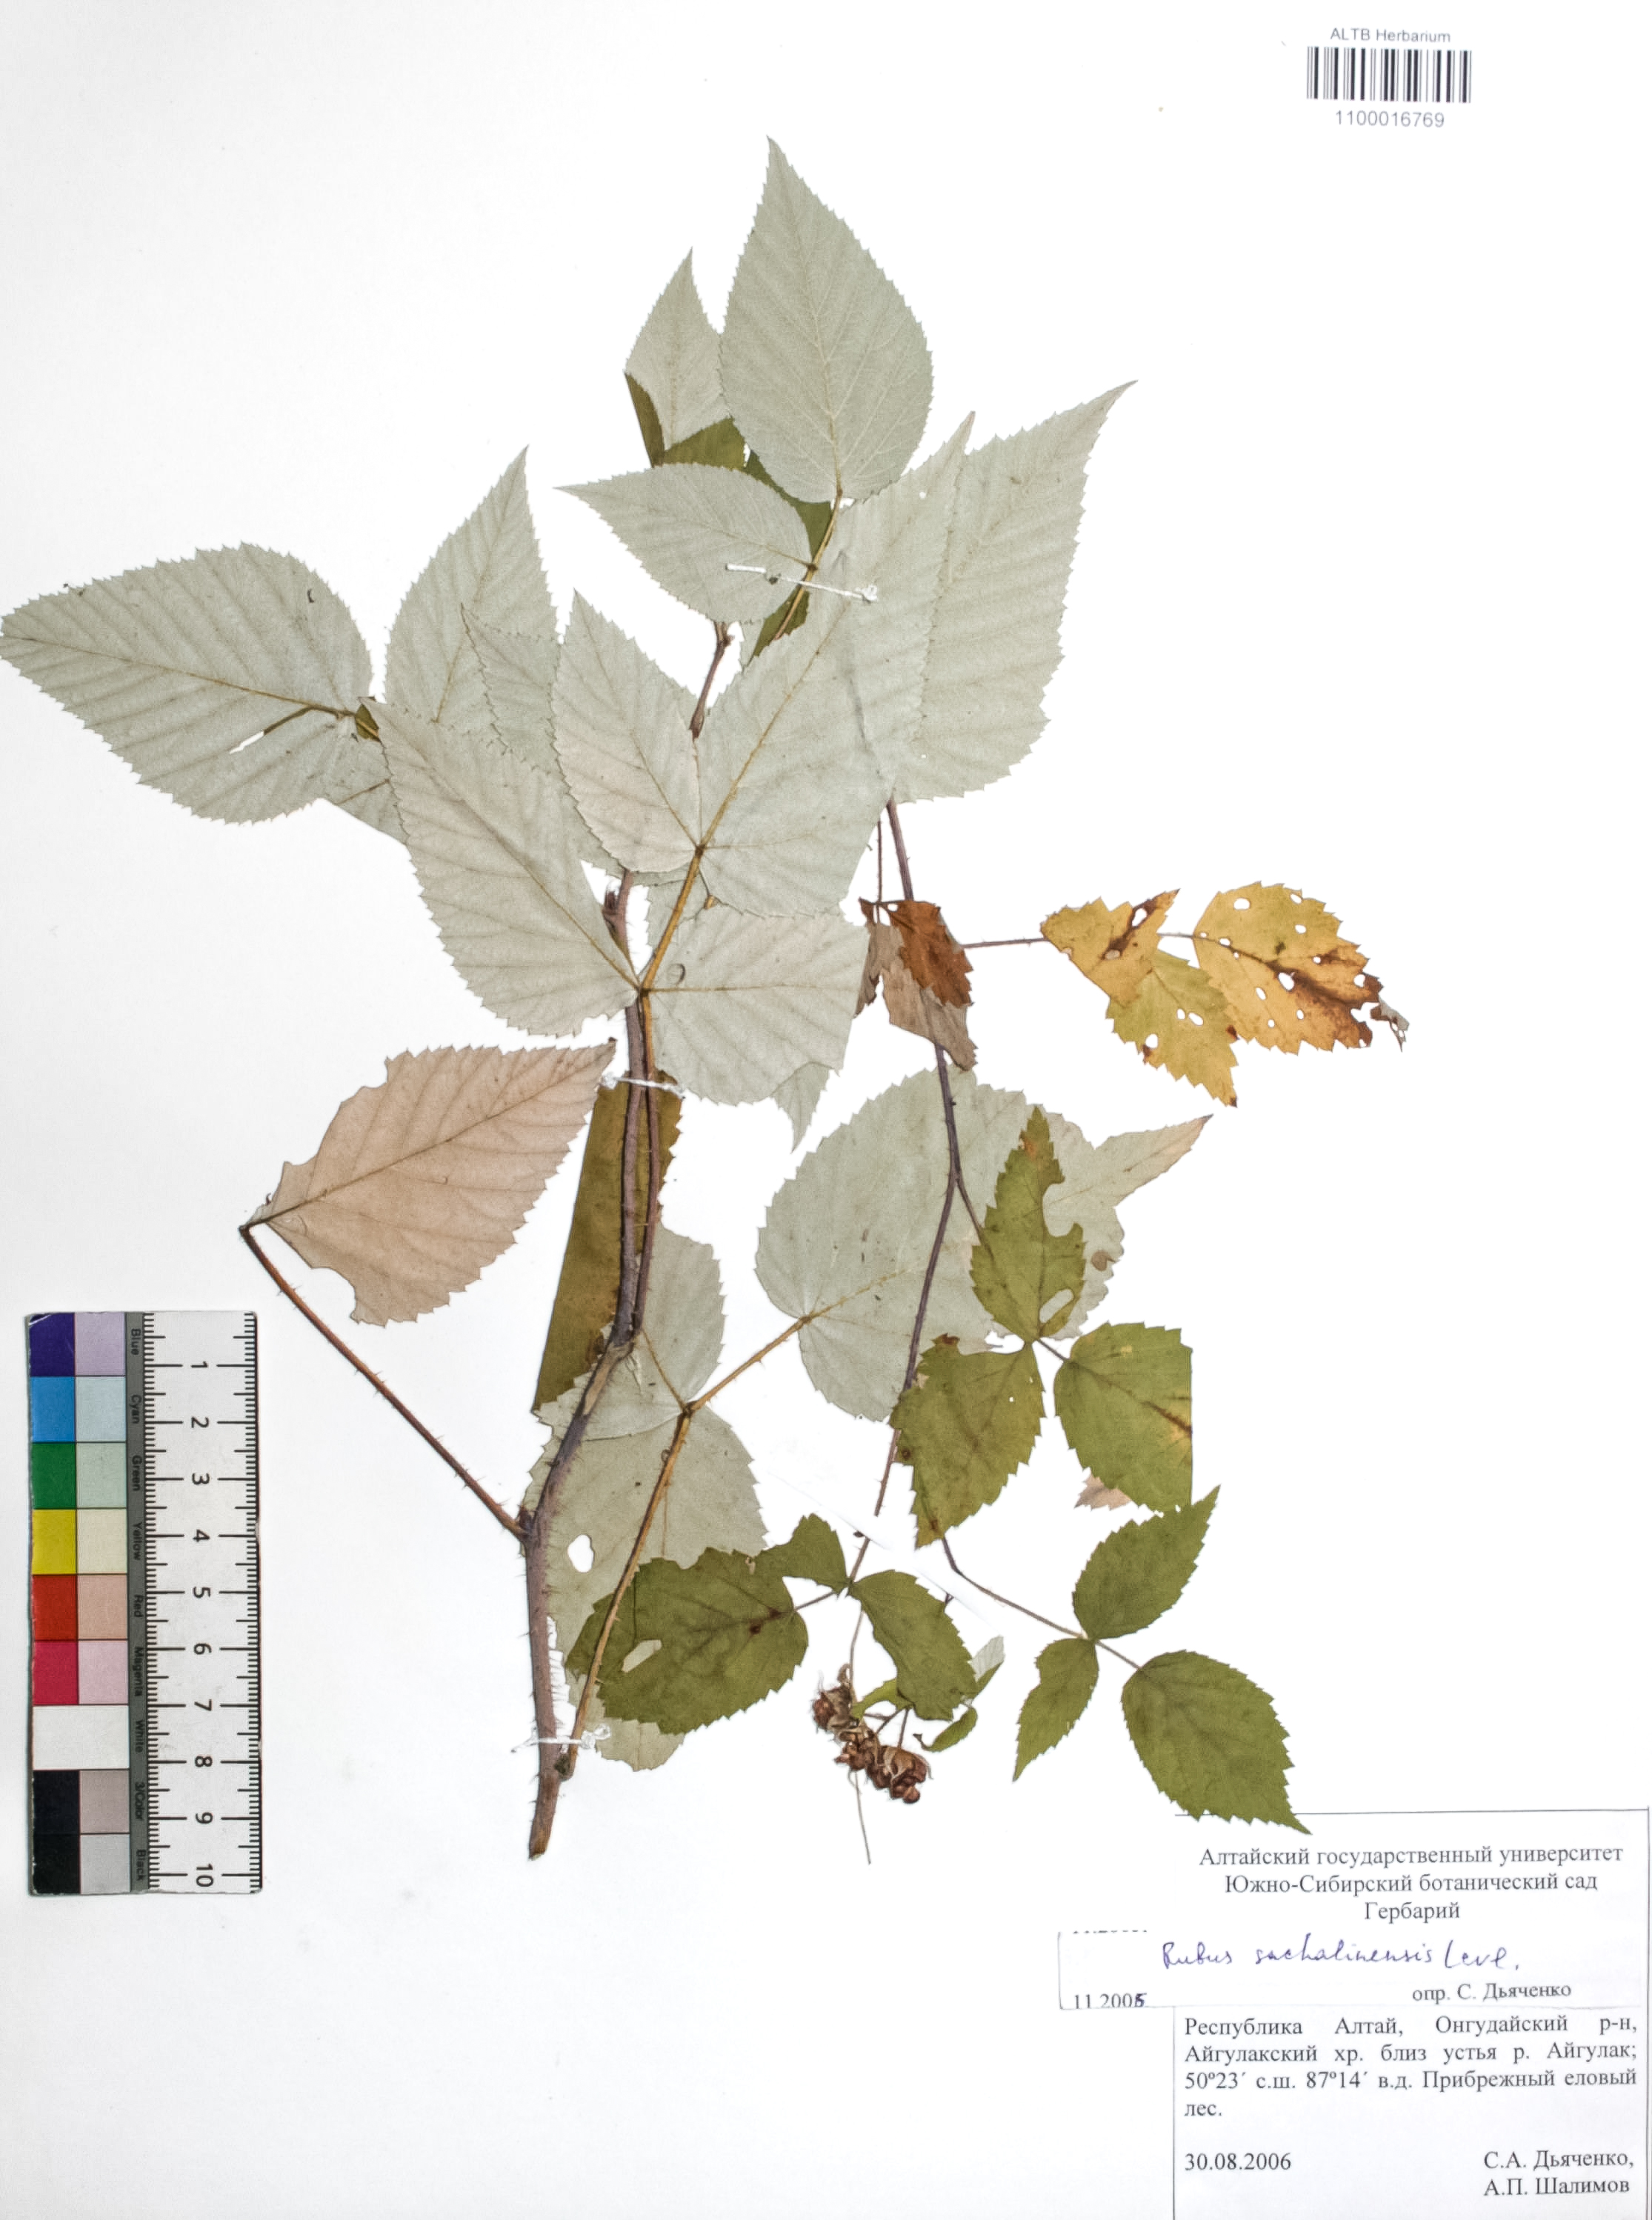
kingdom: Plantae
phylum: Tracheophyta
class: Magnoliopsida
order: Rosales
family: Rosaceae
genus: Rubus
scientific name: Rubus sachalinensis
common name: Red raspberry
